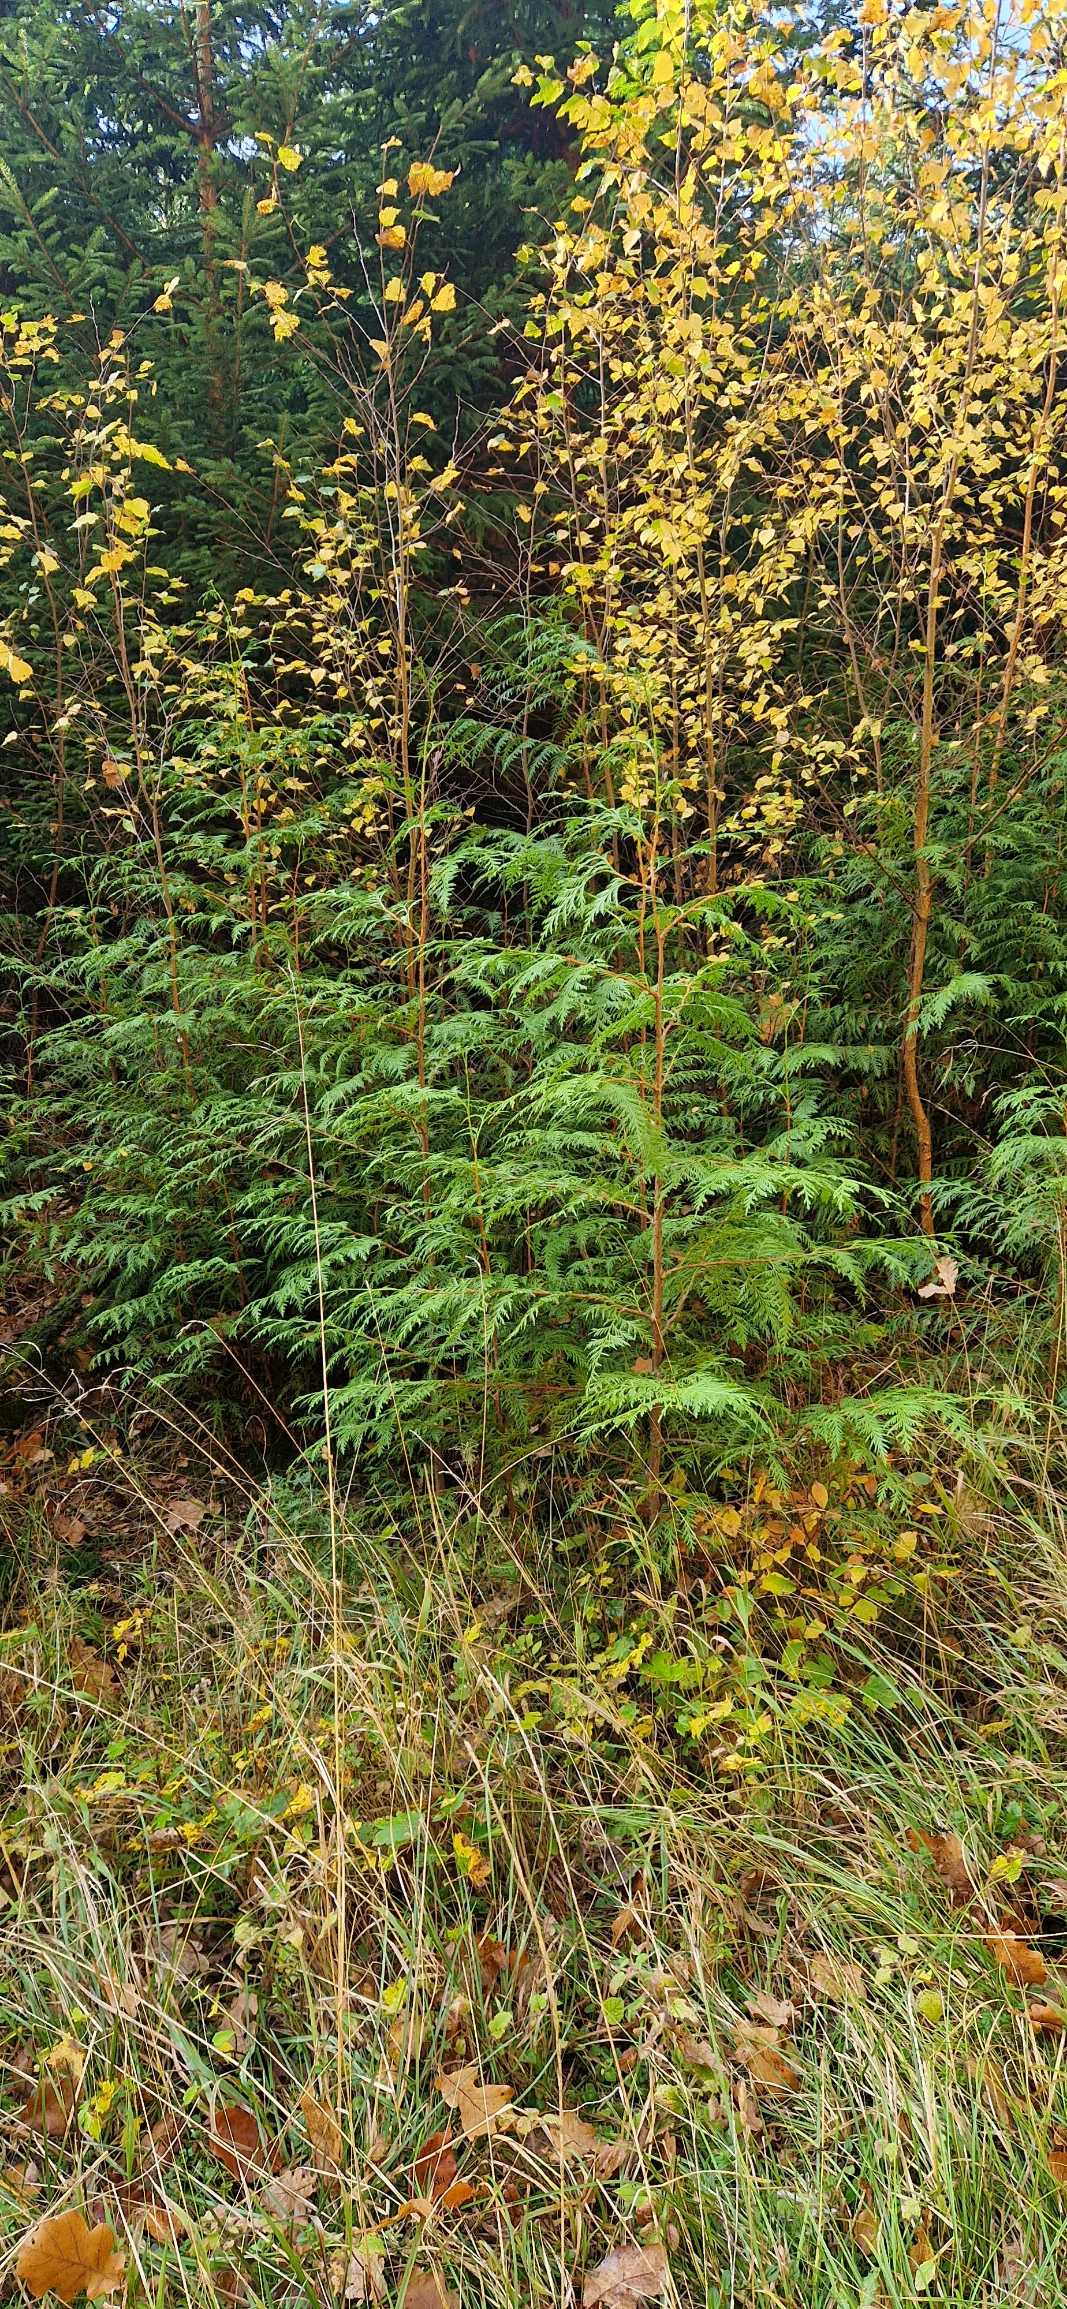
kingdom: Plantae
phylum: Tracheophyta
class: Pinopsida
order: Pinales
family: Cupressaceae
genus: Thuja
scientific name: Thuja plicata
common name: Kæmpe-thuja
